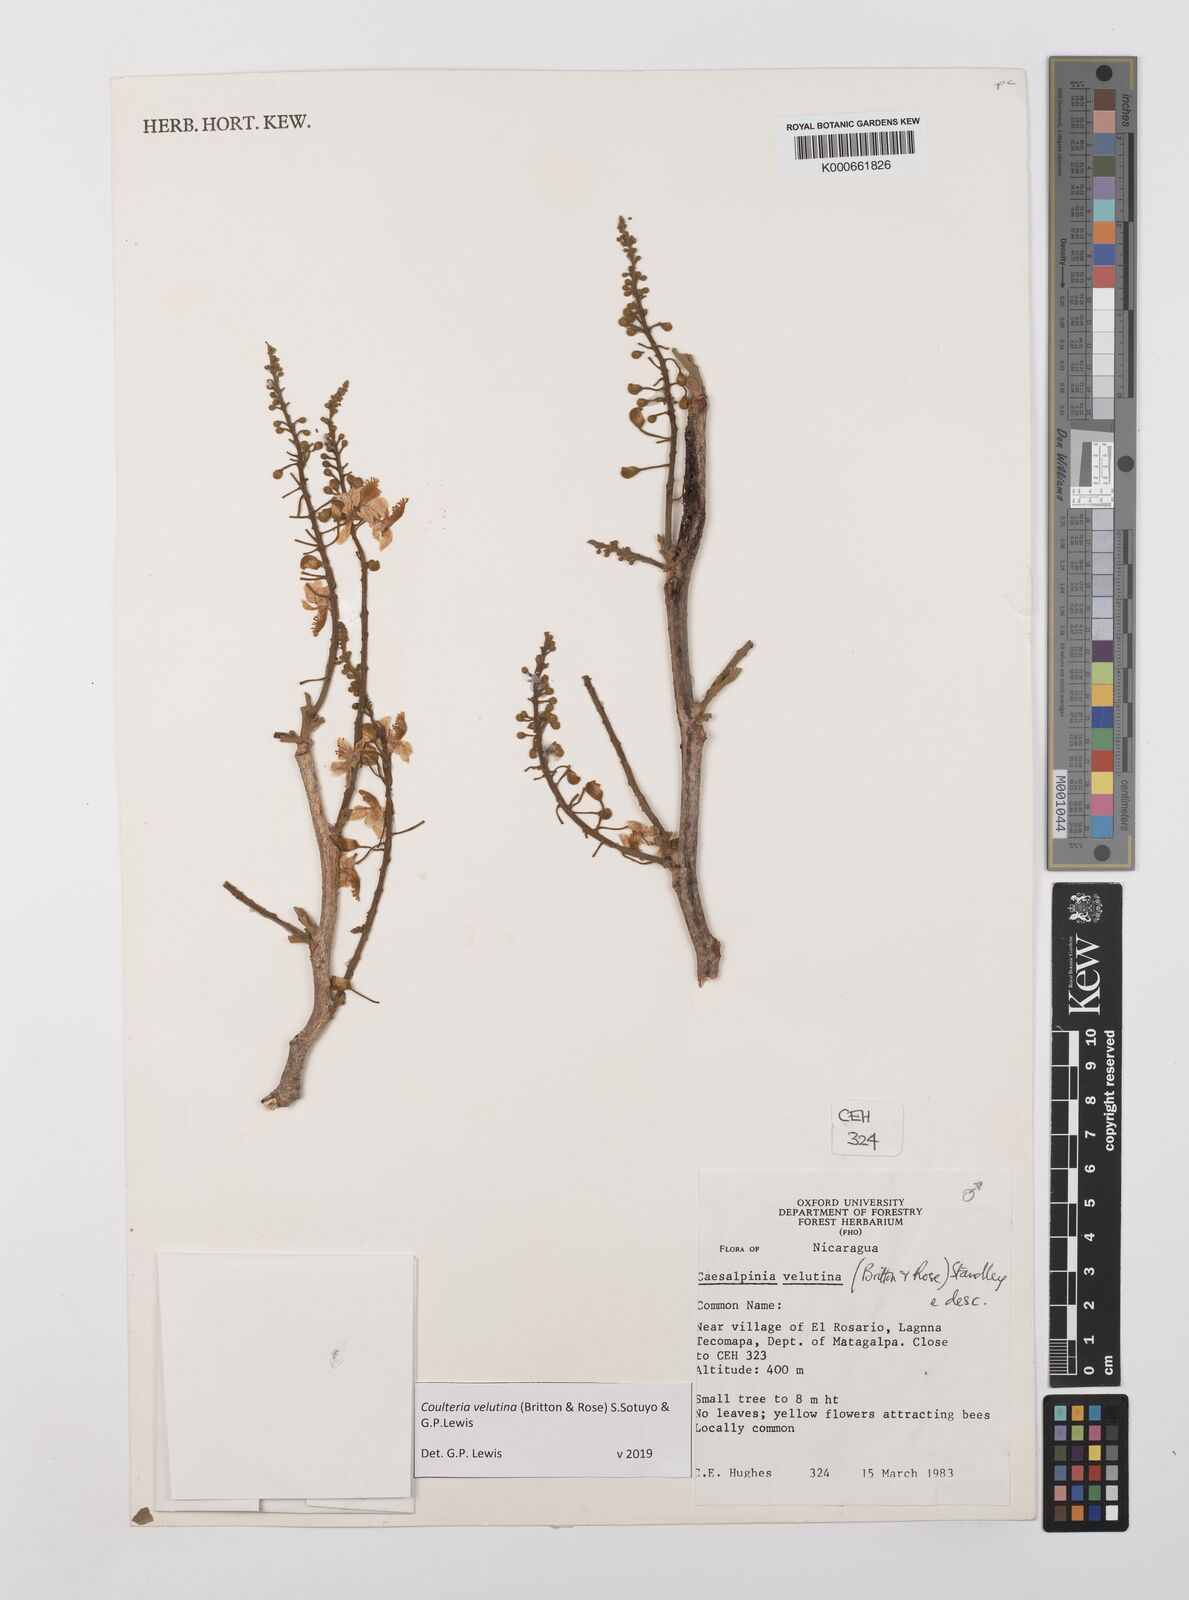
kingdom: Plantae
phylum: Tracheophyta
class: Magnoliopsida
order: Fabales
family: Fabaceae
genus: Coulteria
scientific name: Coulteria velutina
